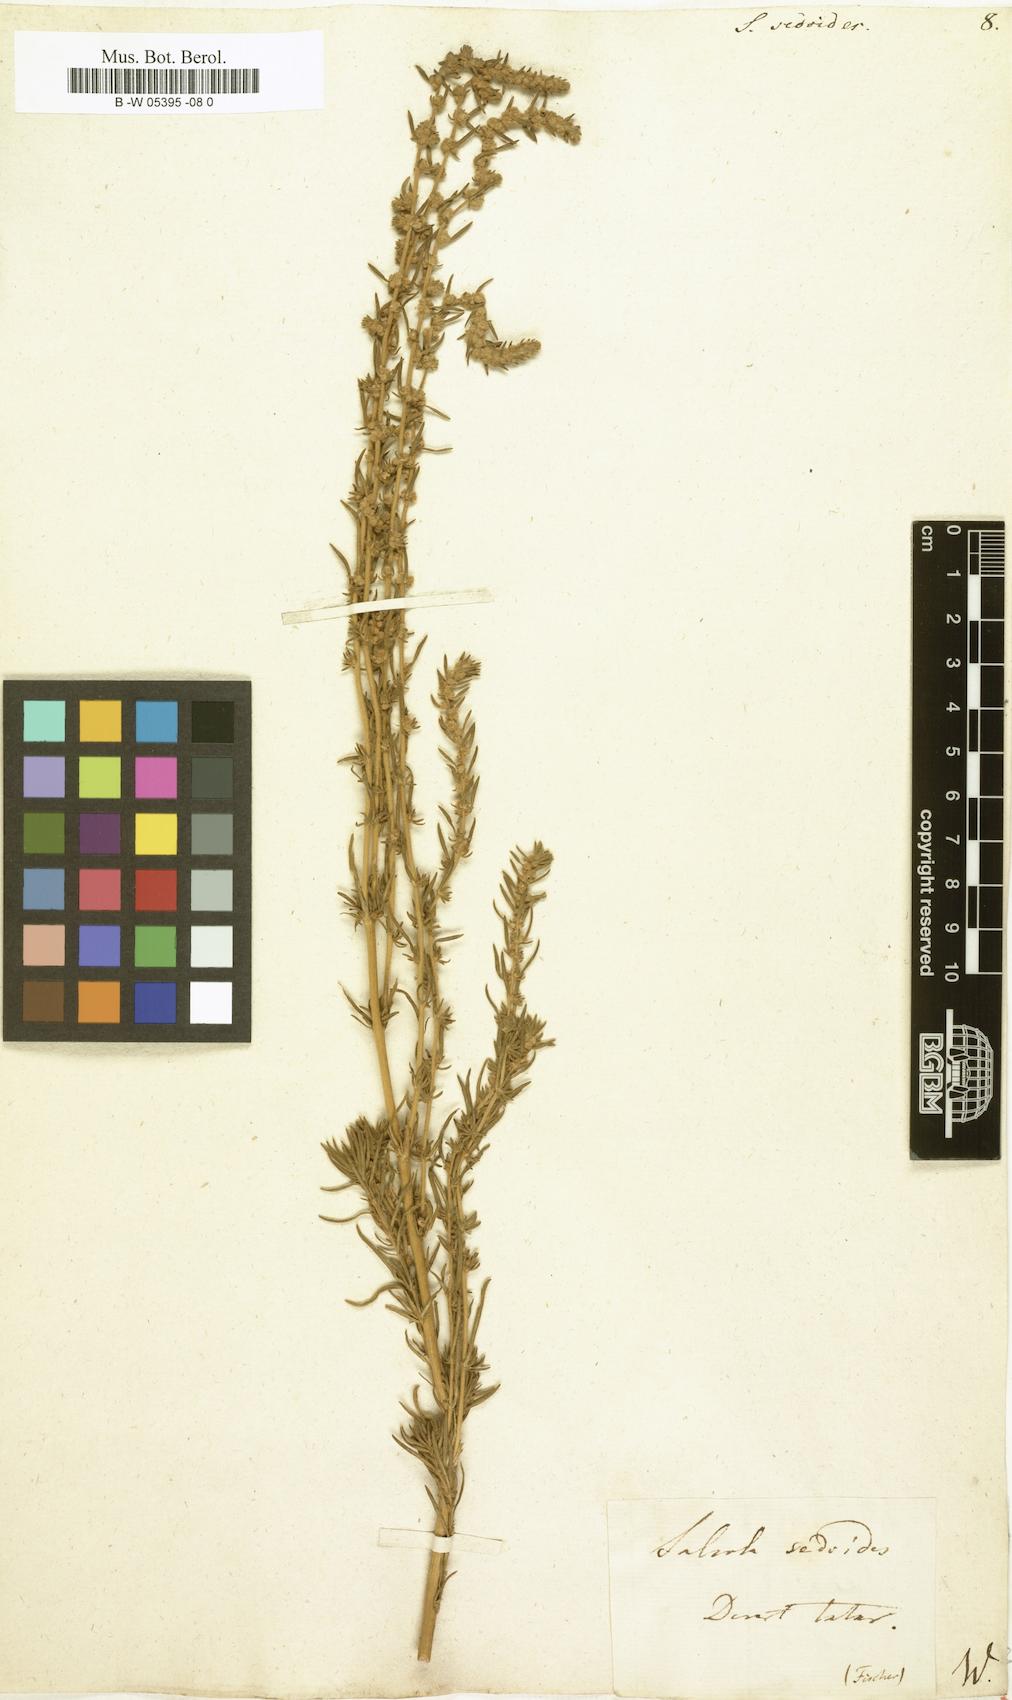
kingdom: Plantae
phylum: Tracheophyta
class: Magnoliopsida
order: Caryophyllales
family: Amaranthaceae
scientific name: Amaranthaceae
